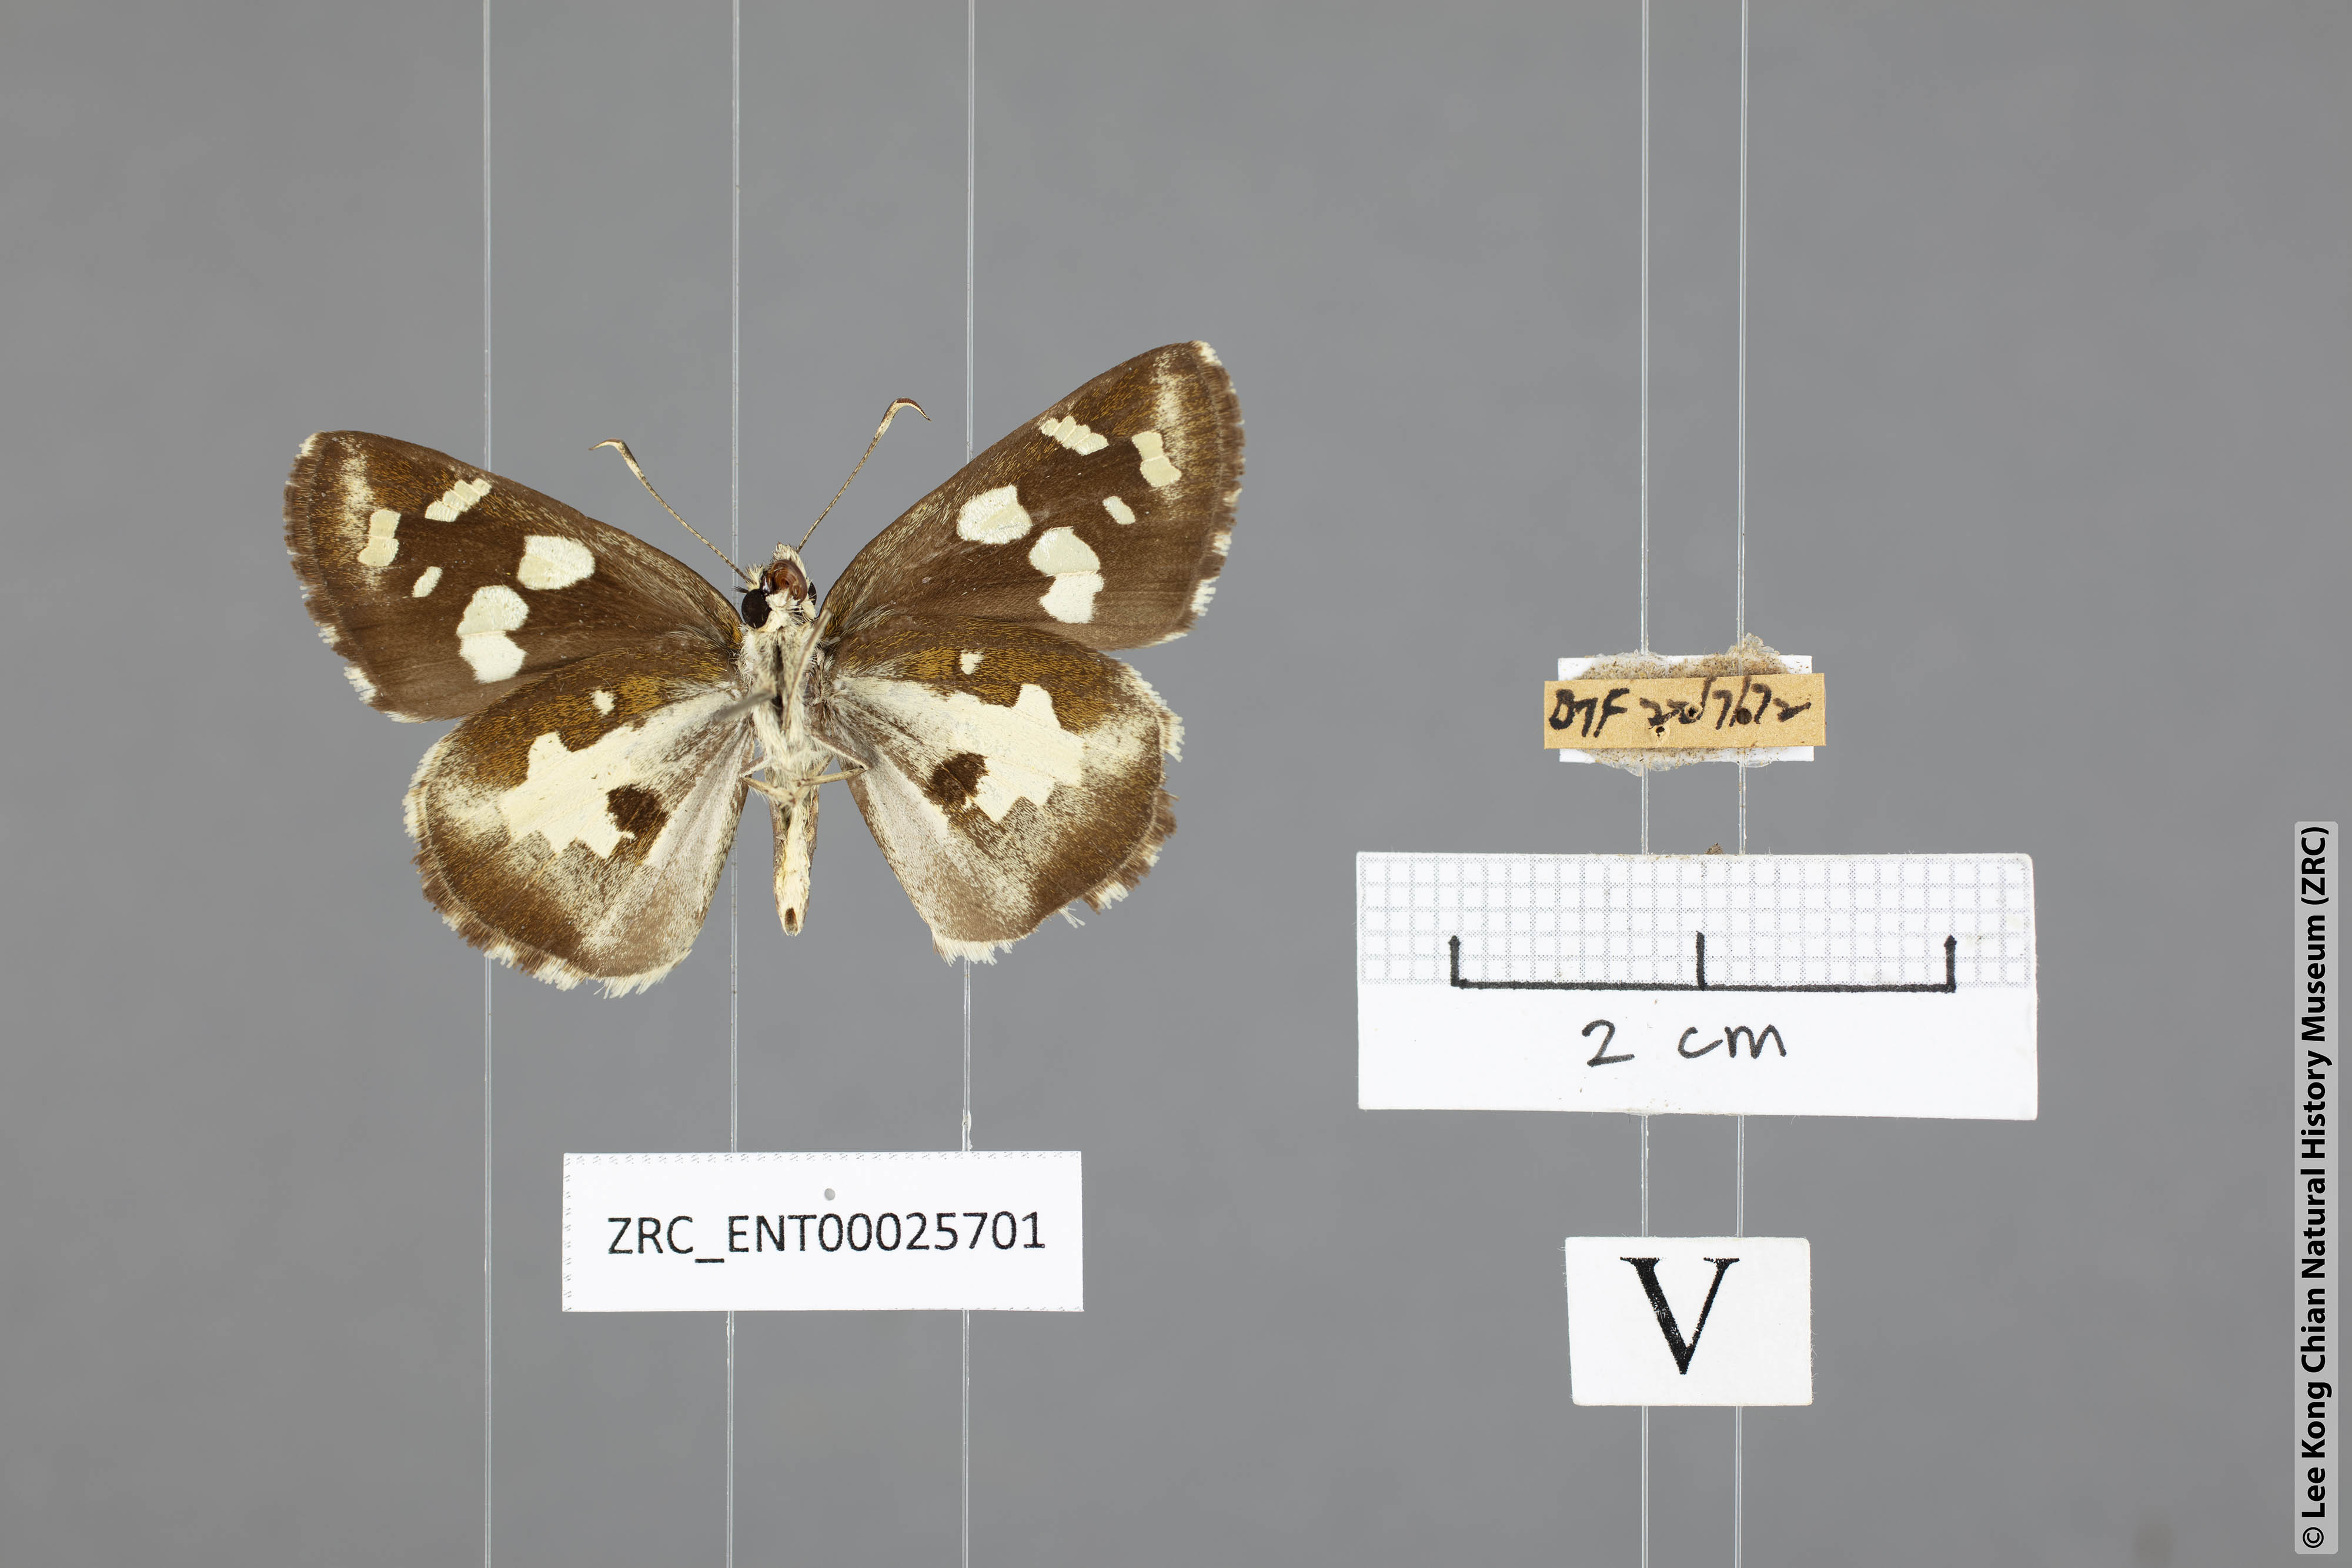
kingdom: Animalia
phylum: Arthropoda
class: Insecta
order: Lepidoptera
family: Hesperiidae
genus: Udaspes
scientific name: Udaspes folus
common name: Grass demon
